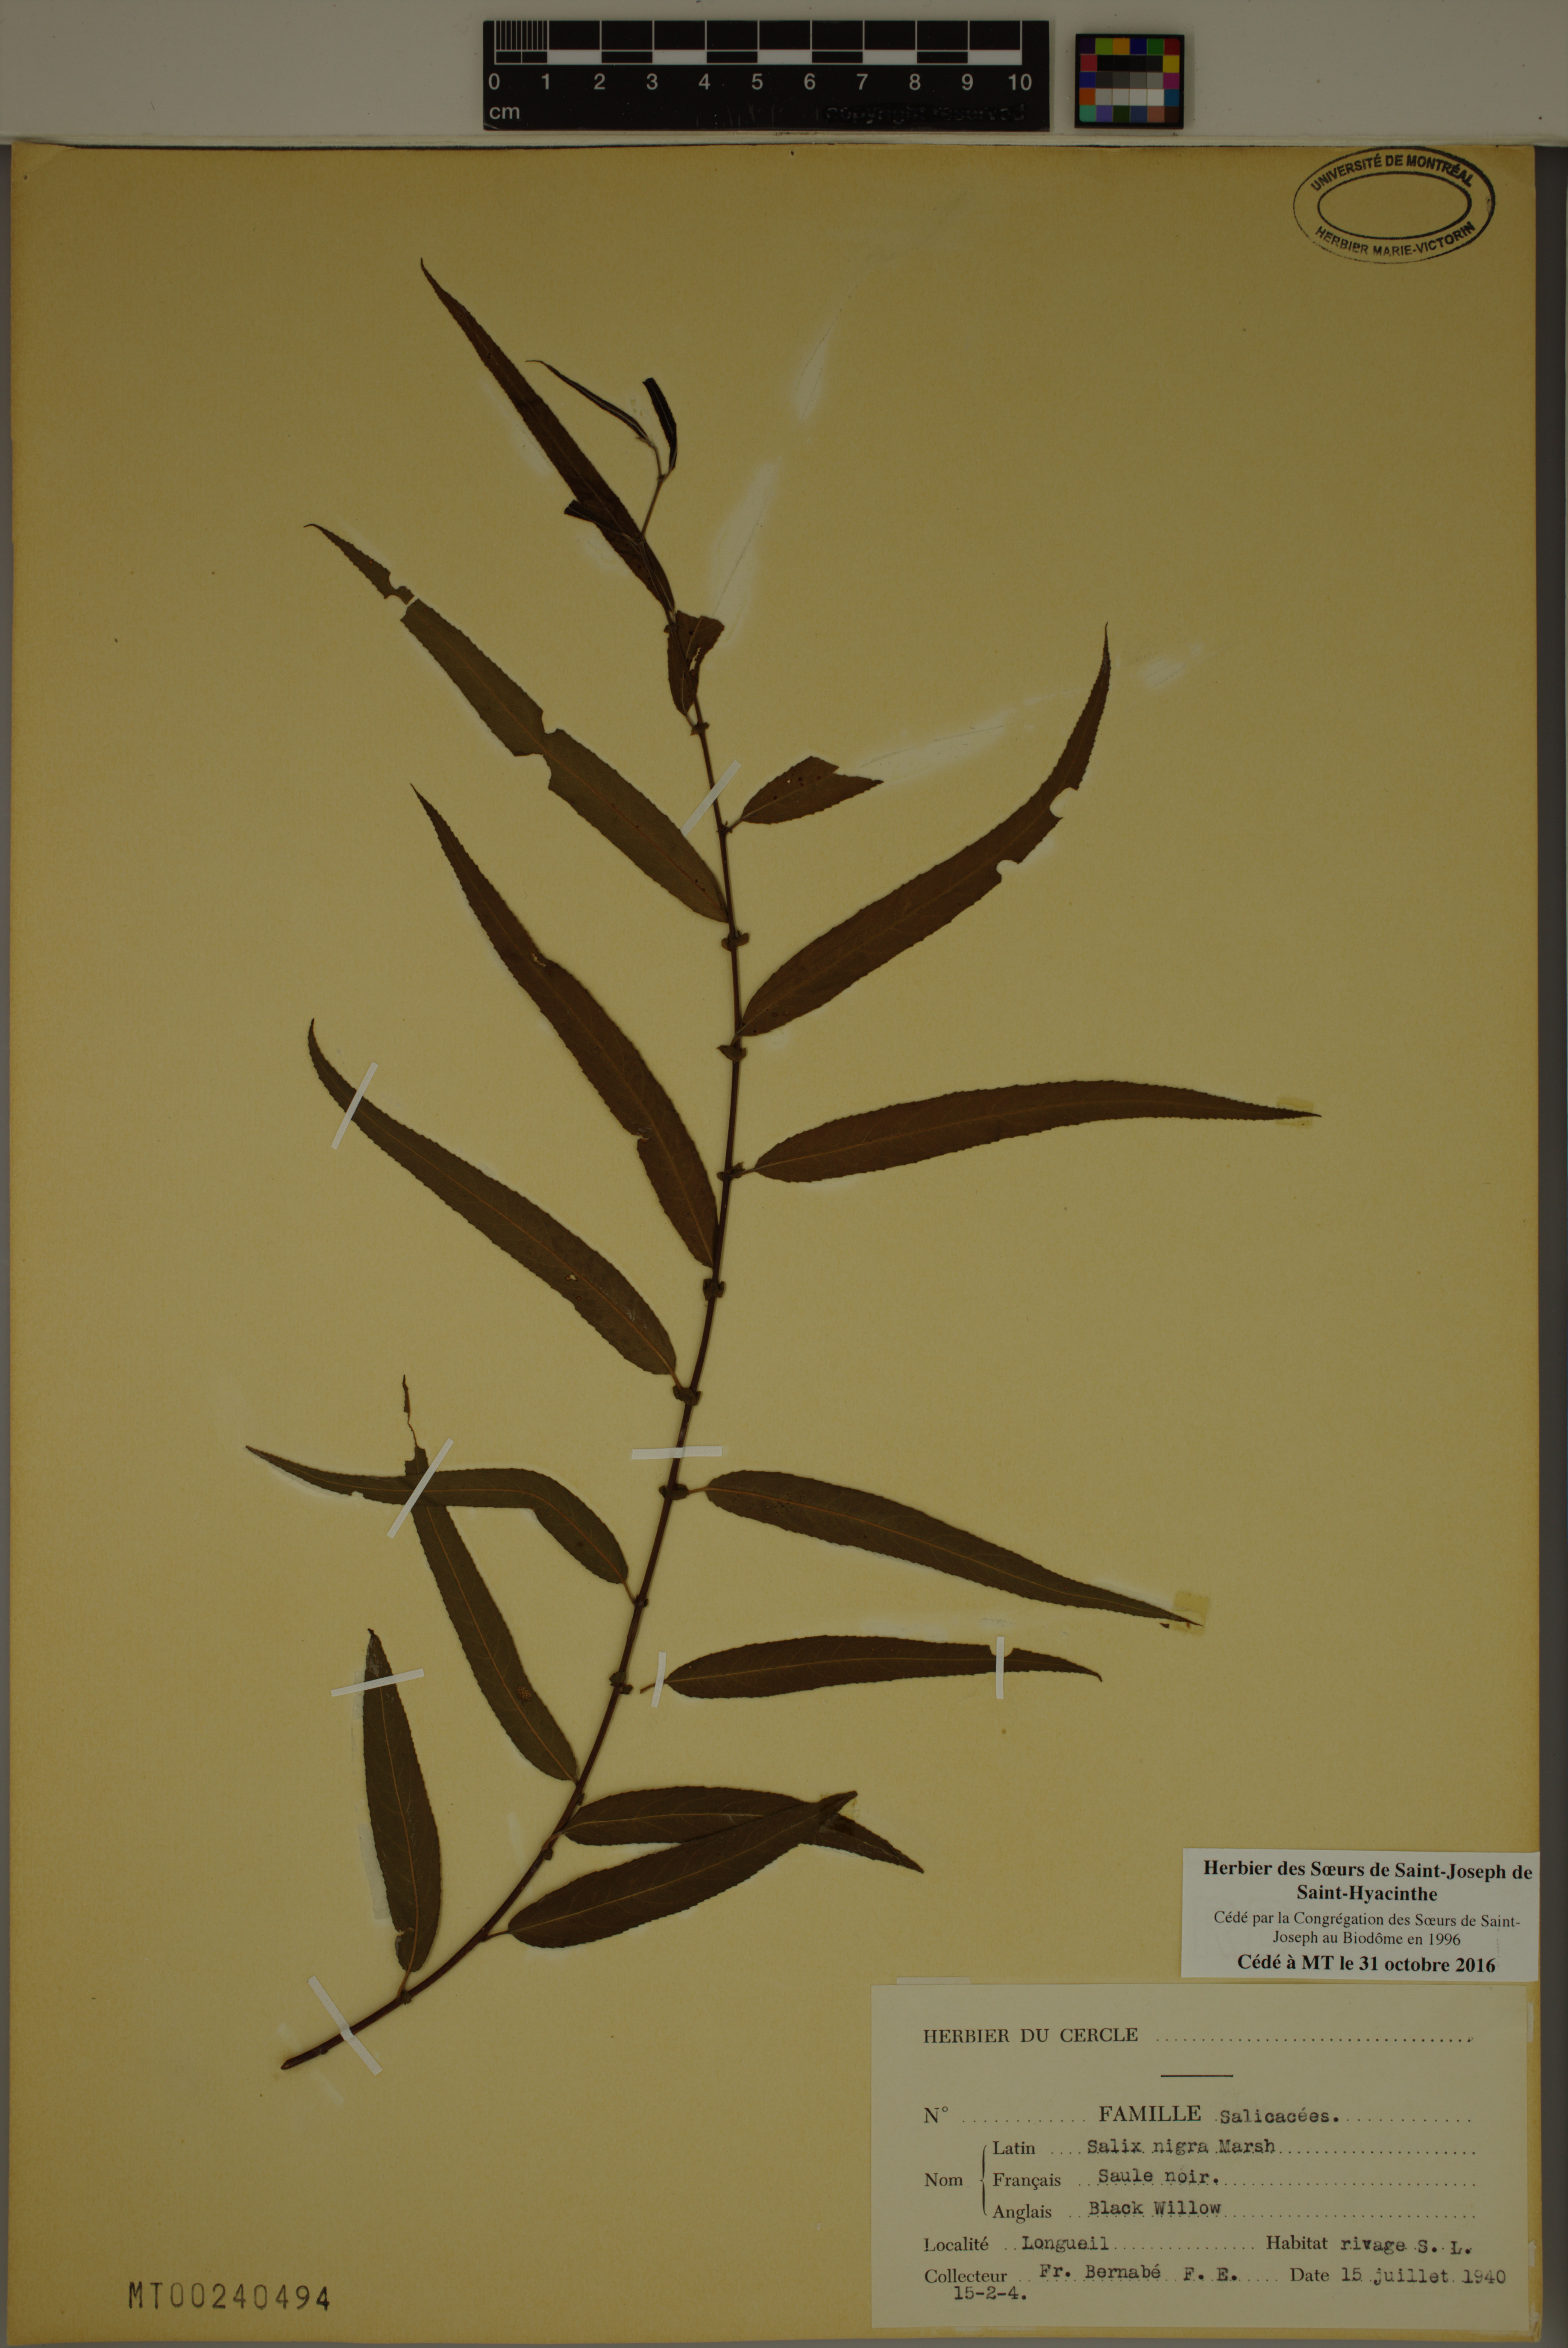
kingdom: Plantae
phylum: Tracheophyta
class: Magnoliopsida
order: Malpighiales
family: Salicaceae
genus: Salix
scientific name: Salix nigra
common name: Black willow
